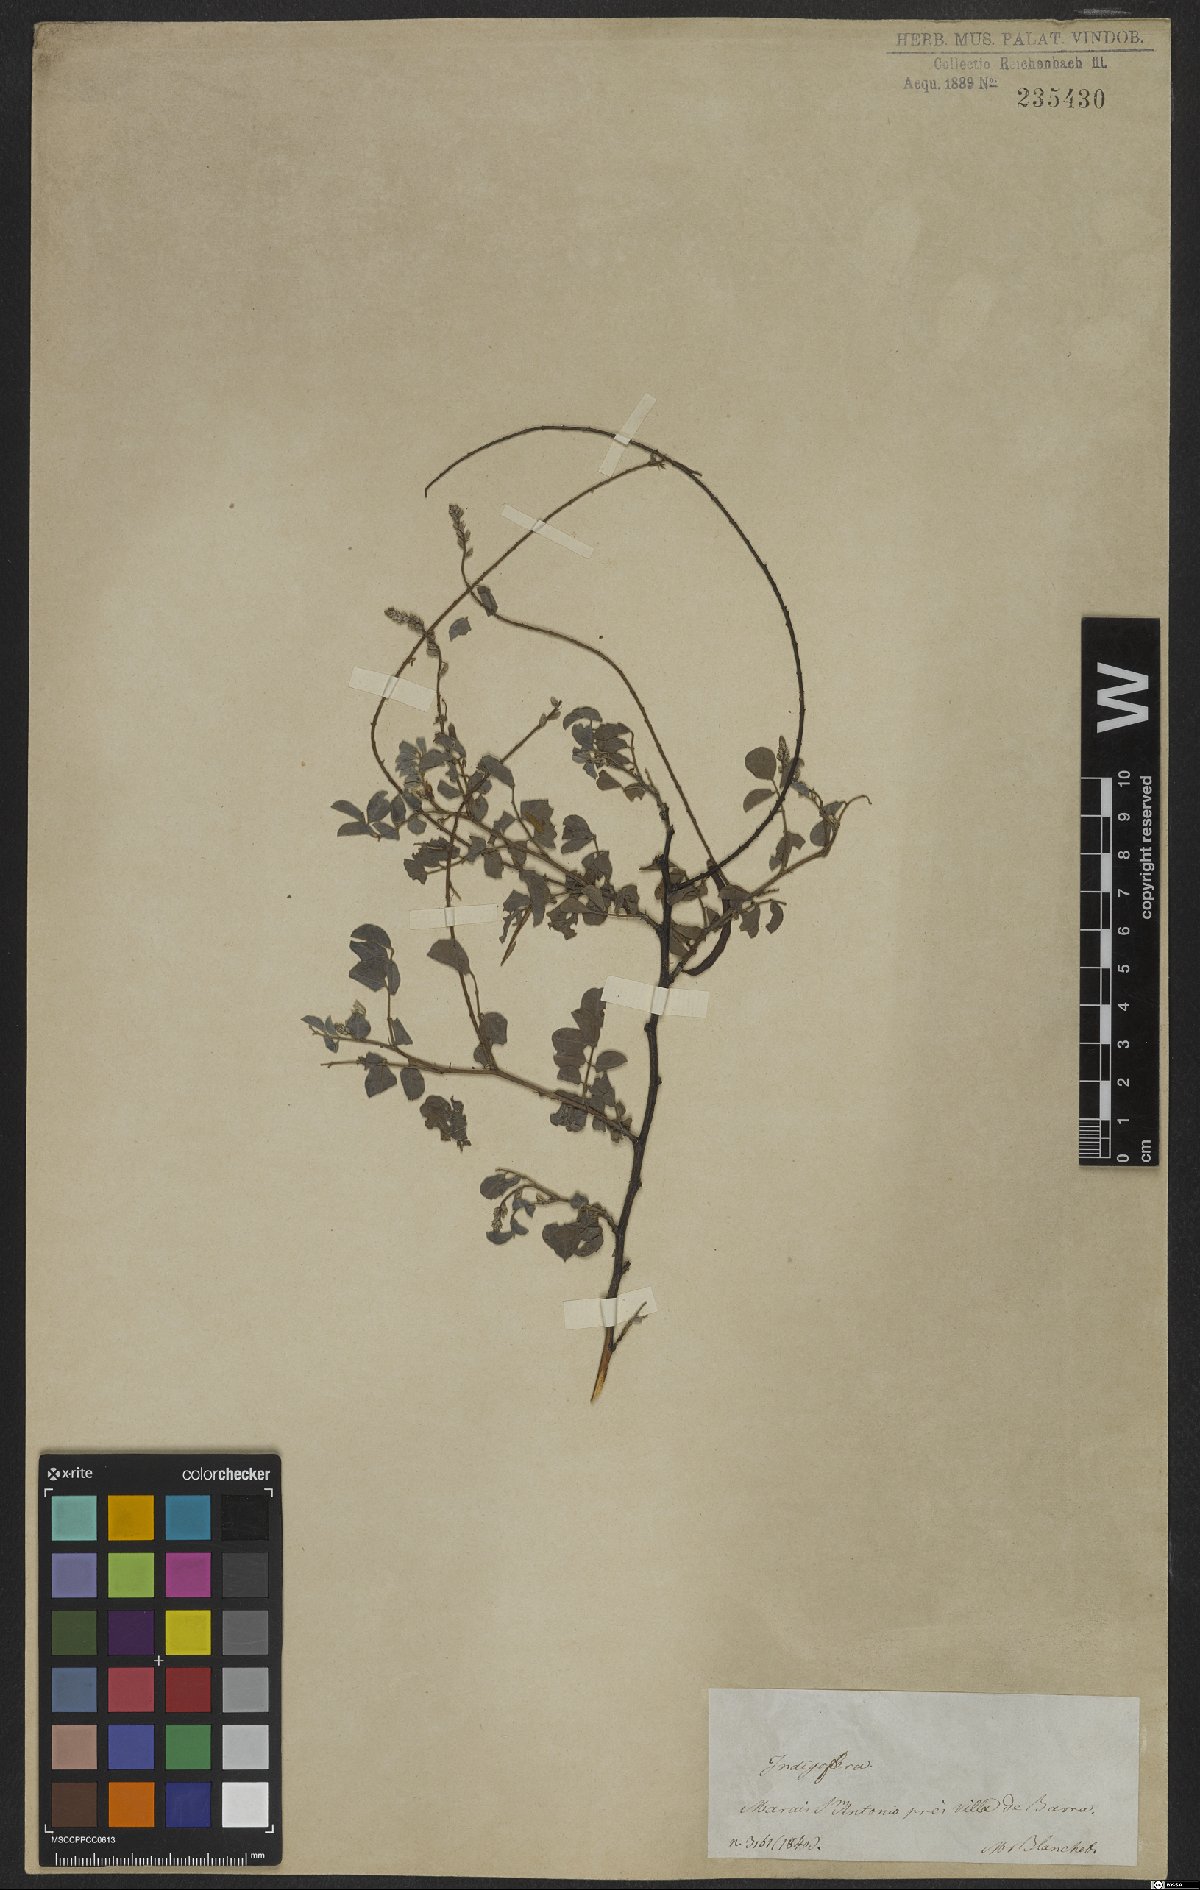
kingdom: Plantae
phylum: Tracheophyta
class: Magnoliopsida
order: Fabales
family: Fabaceae
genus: Indigofera
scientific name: Indigofera
